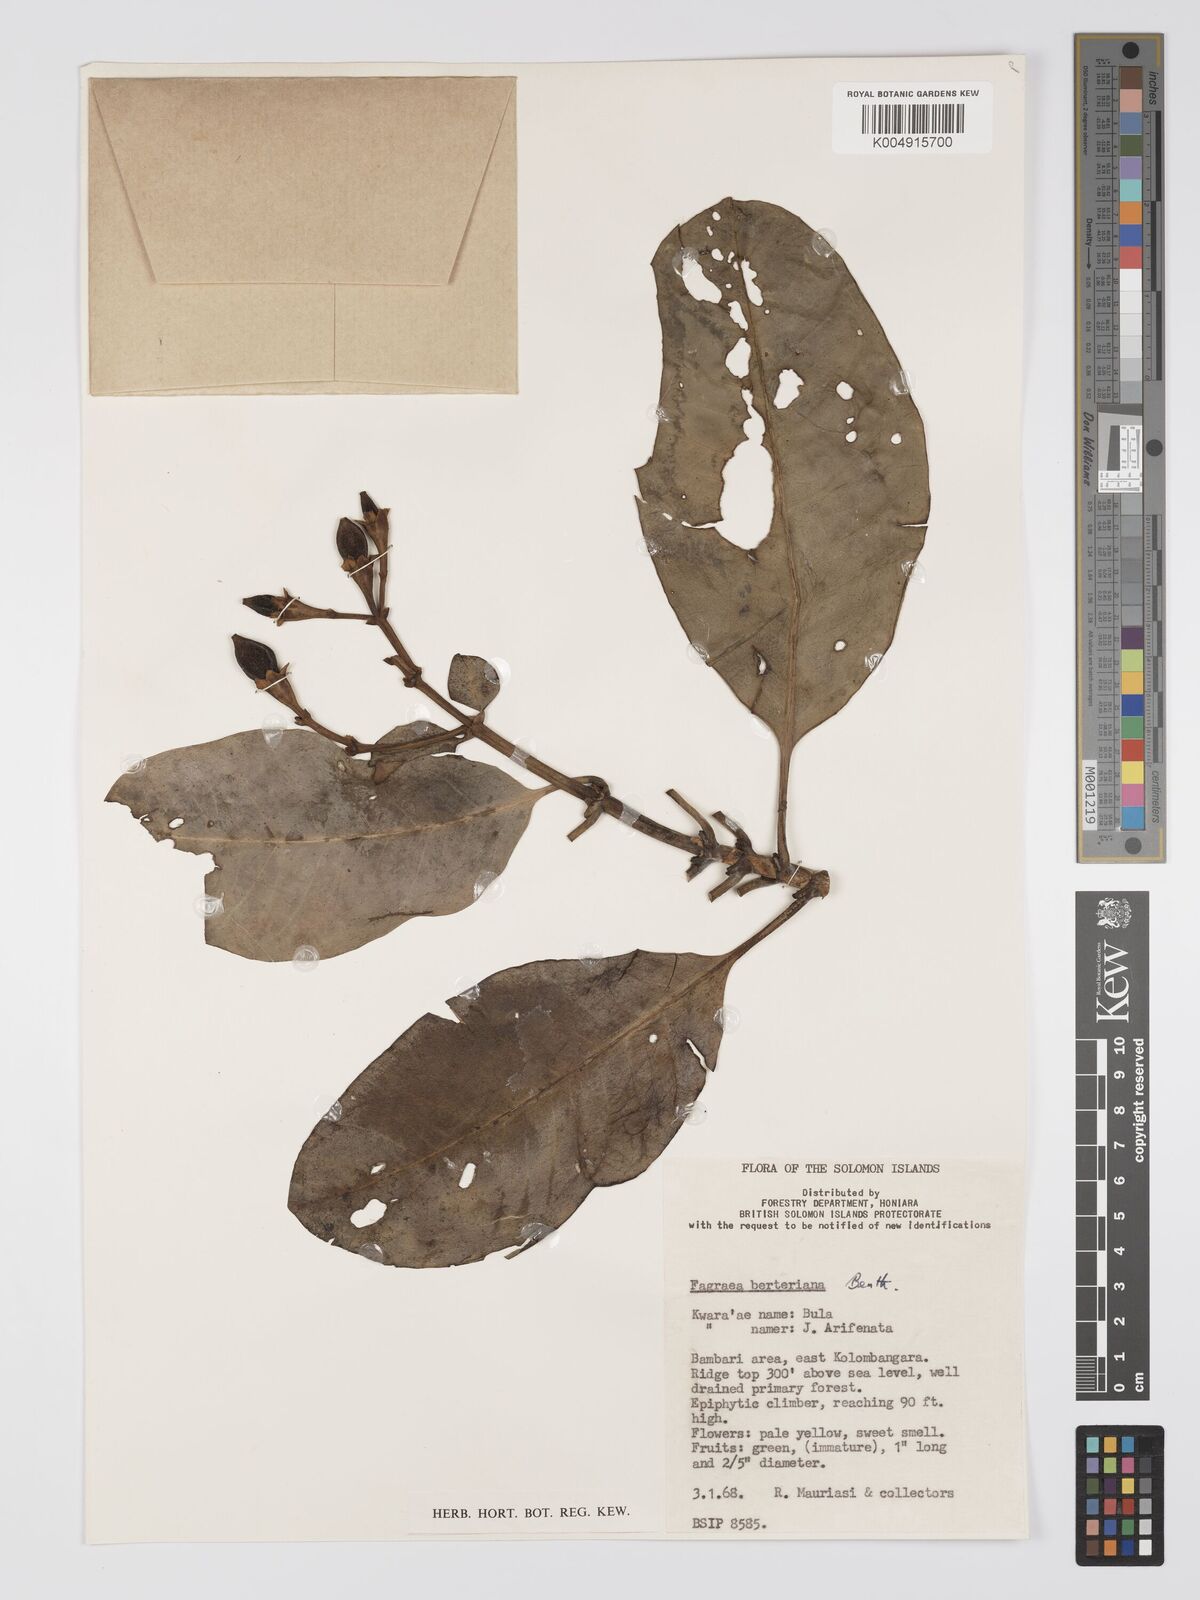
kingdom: Plantae
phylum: Tracheophyta
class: Magnoliopsida
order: Gentianales
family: Gentianaceae
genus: Fagraea
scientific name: Fagraea berteroana
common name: Cape jitta
